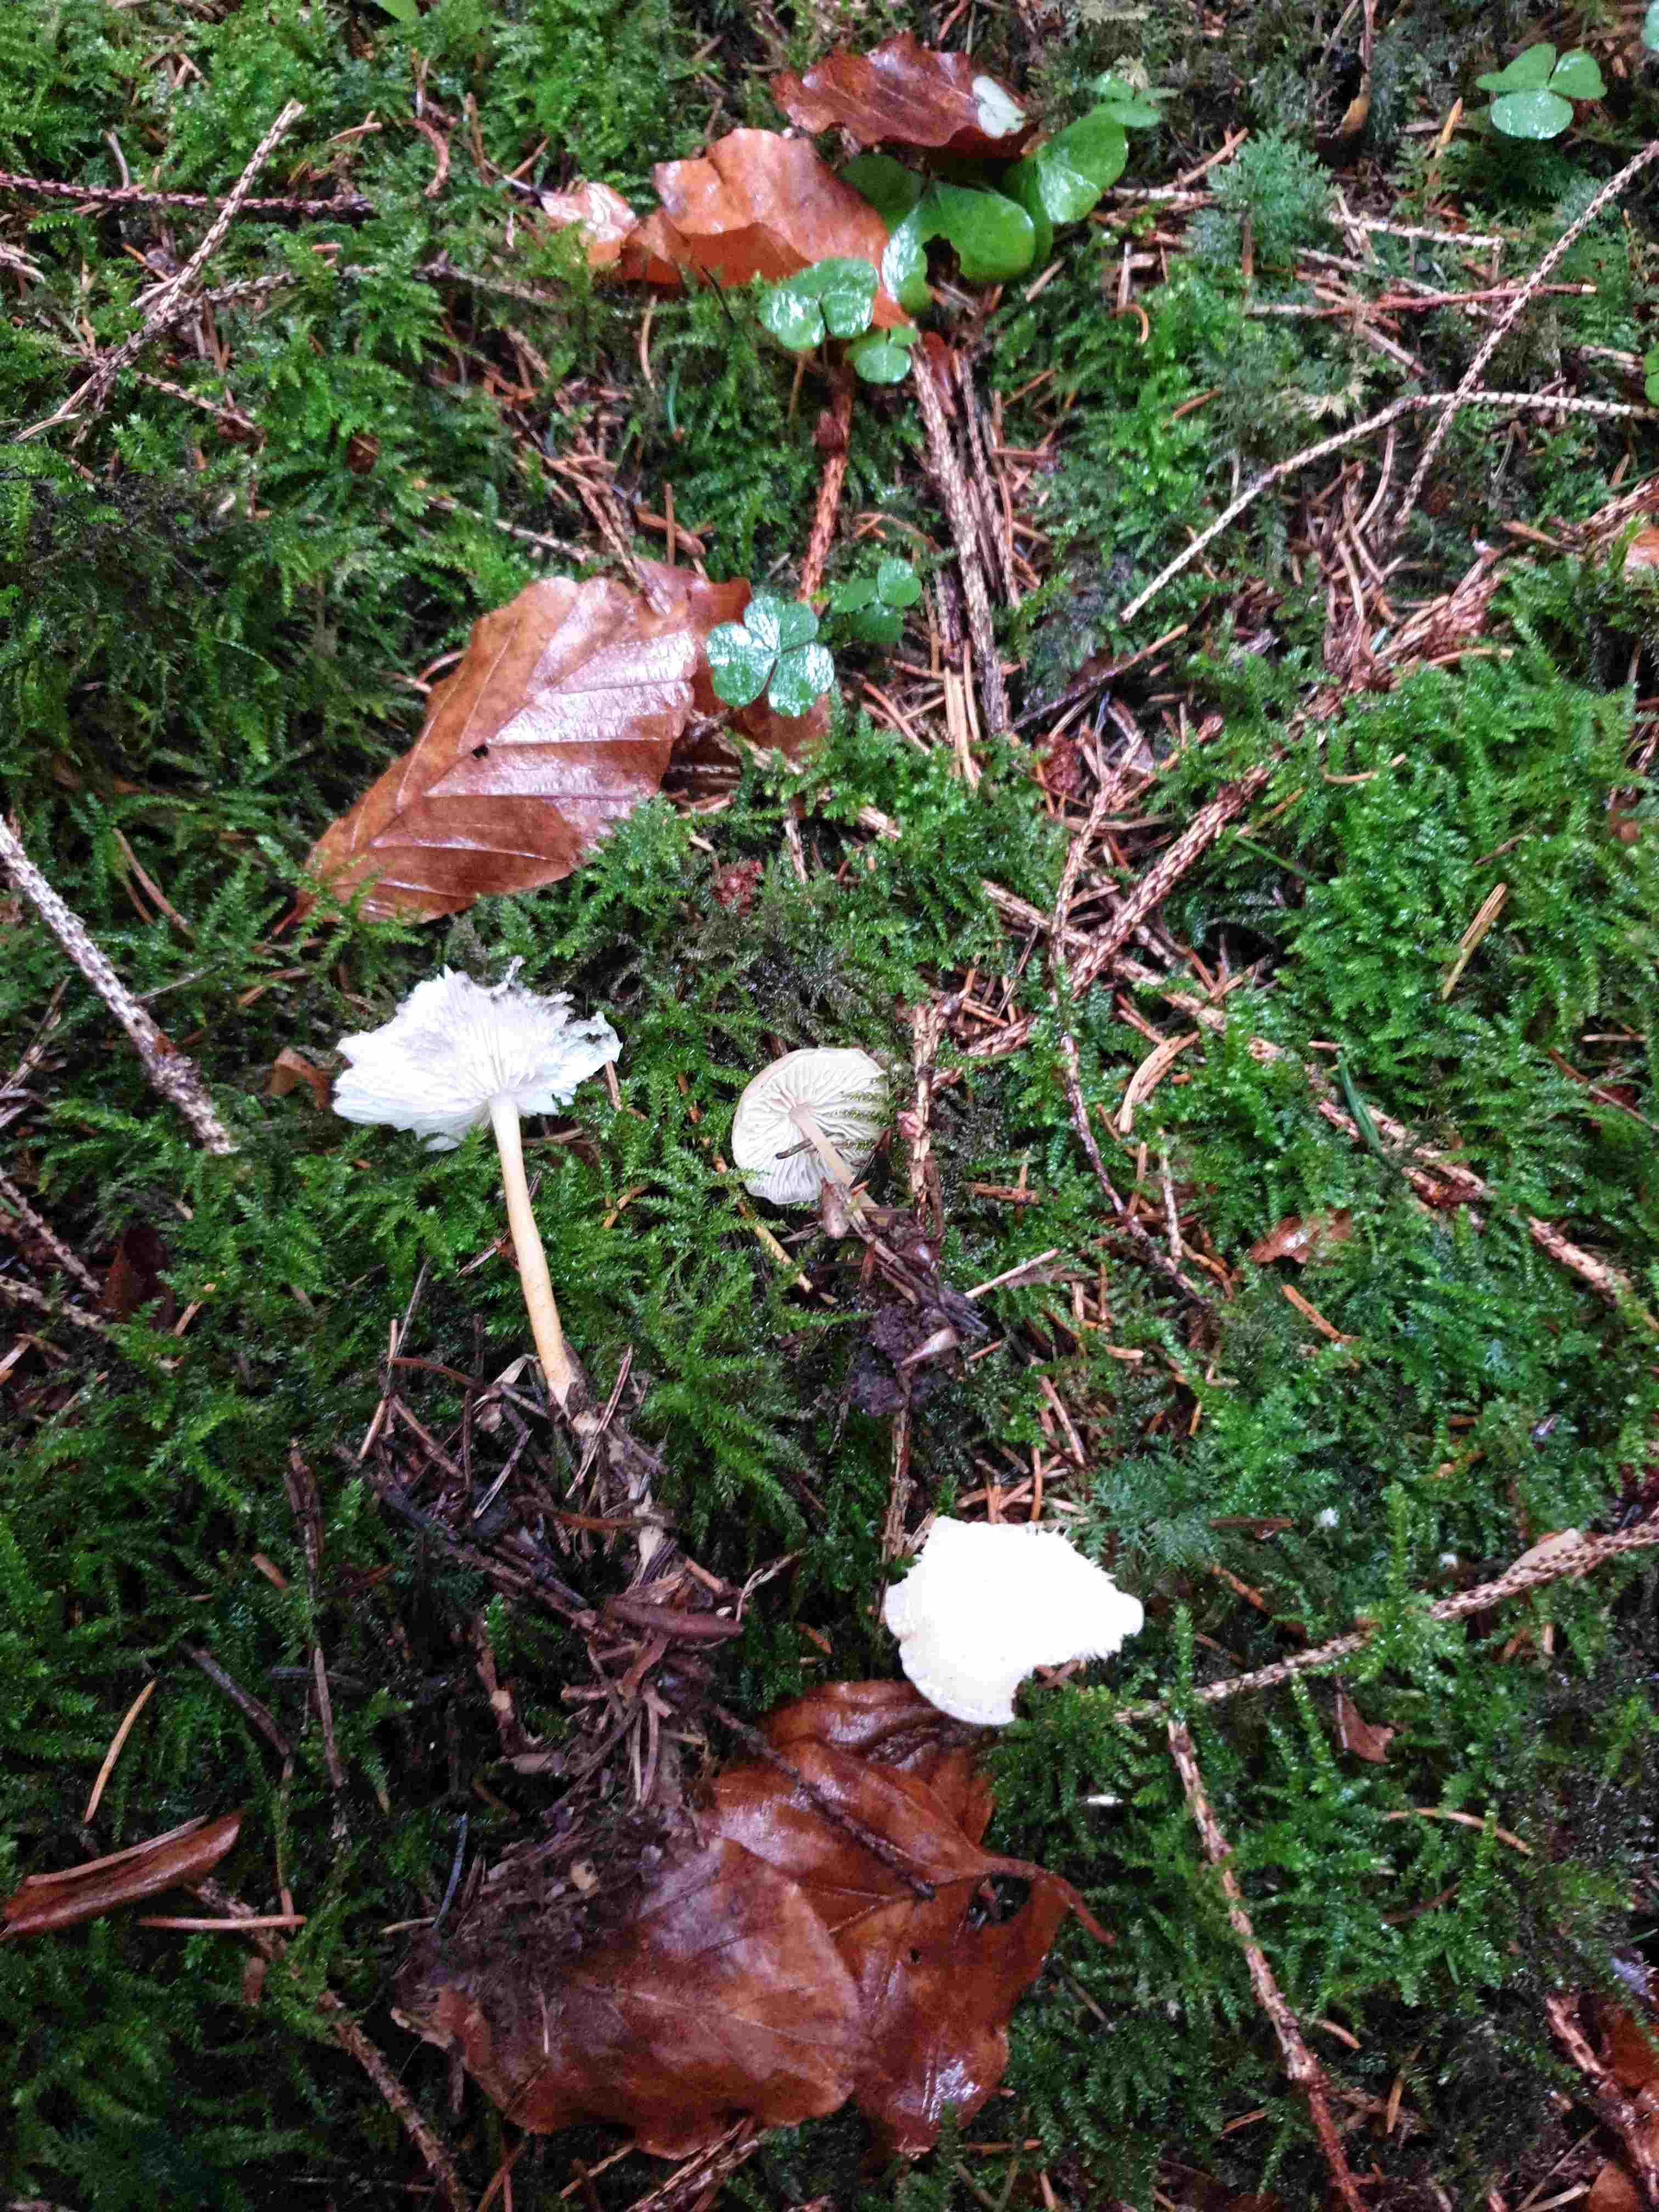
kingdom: Fungi
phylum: Basidiomycota
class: Agaricomycetes
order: Agaricales
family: Physalacriaceae
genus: Strobilurus
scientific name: Strobilurus esculentus
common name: gran-koglehat
